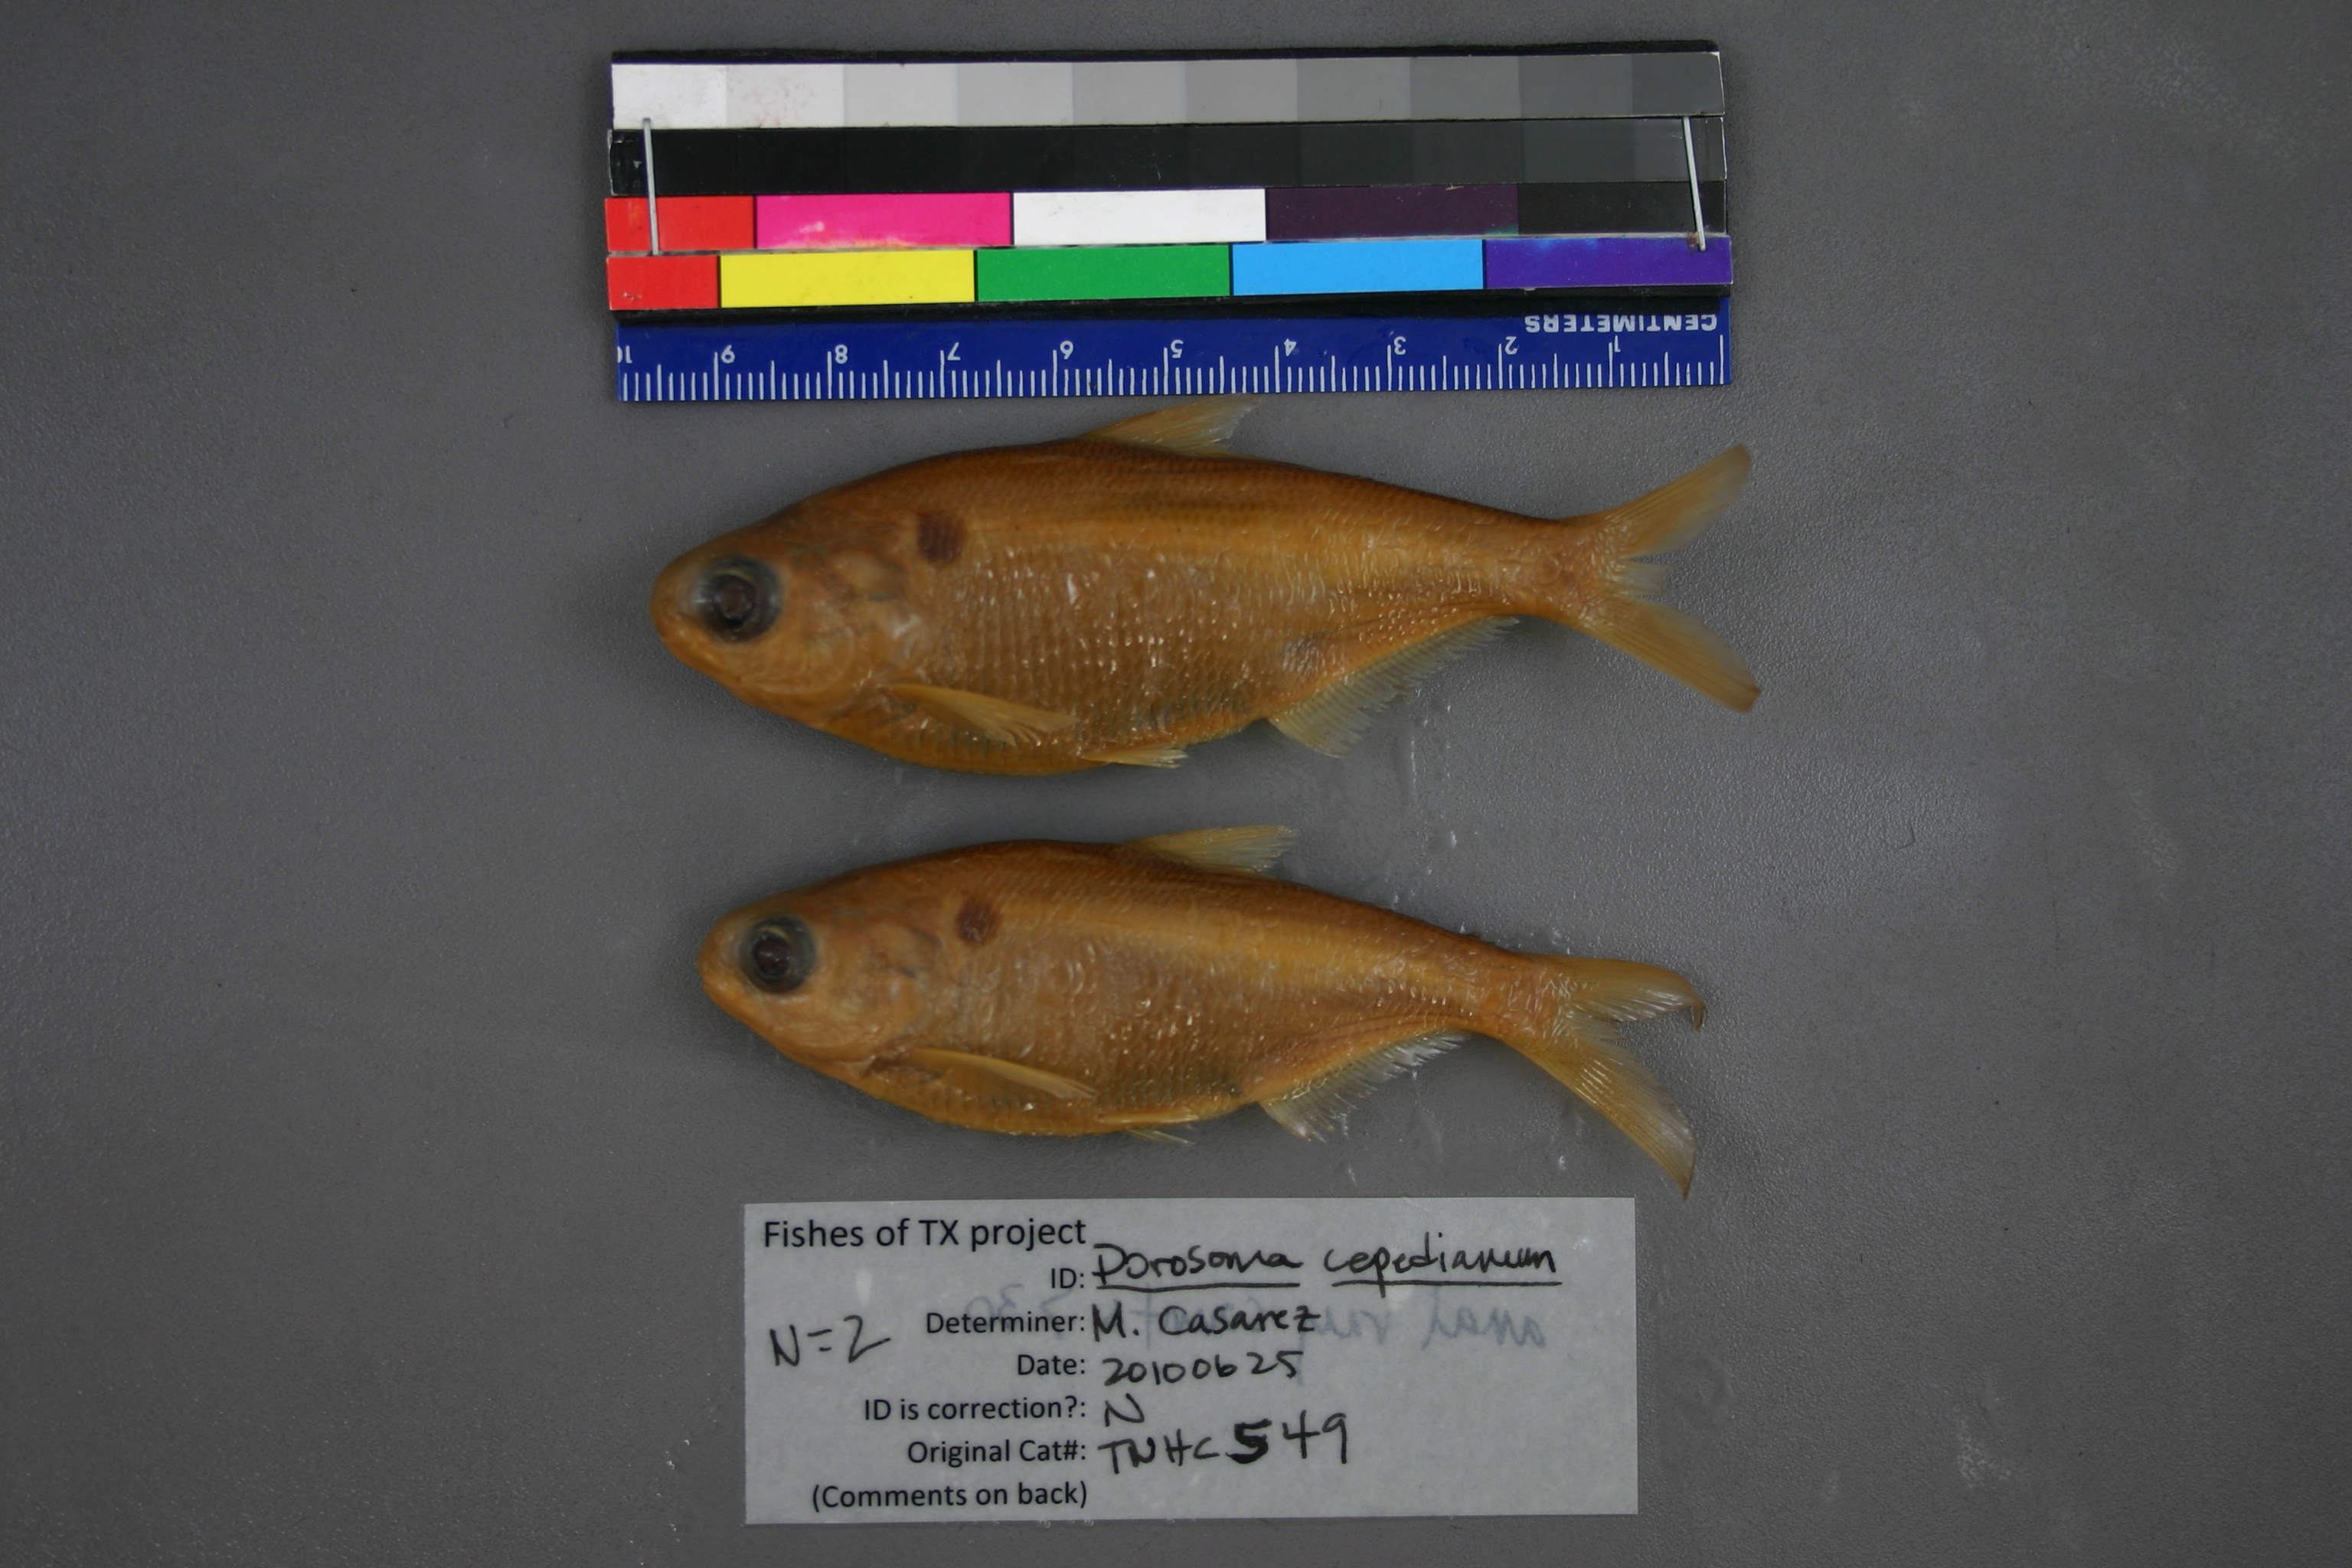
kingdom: Animalia
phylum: Chordata
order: Clupeiformes
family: Clupeidae
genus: Dorosoma
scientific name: Dorosoma cepedianum
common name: Gizzard shad
